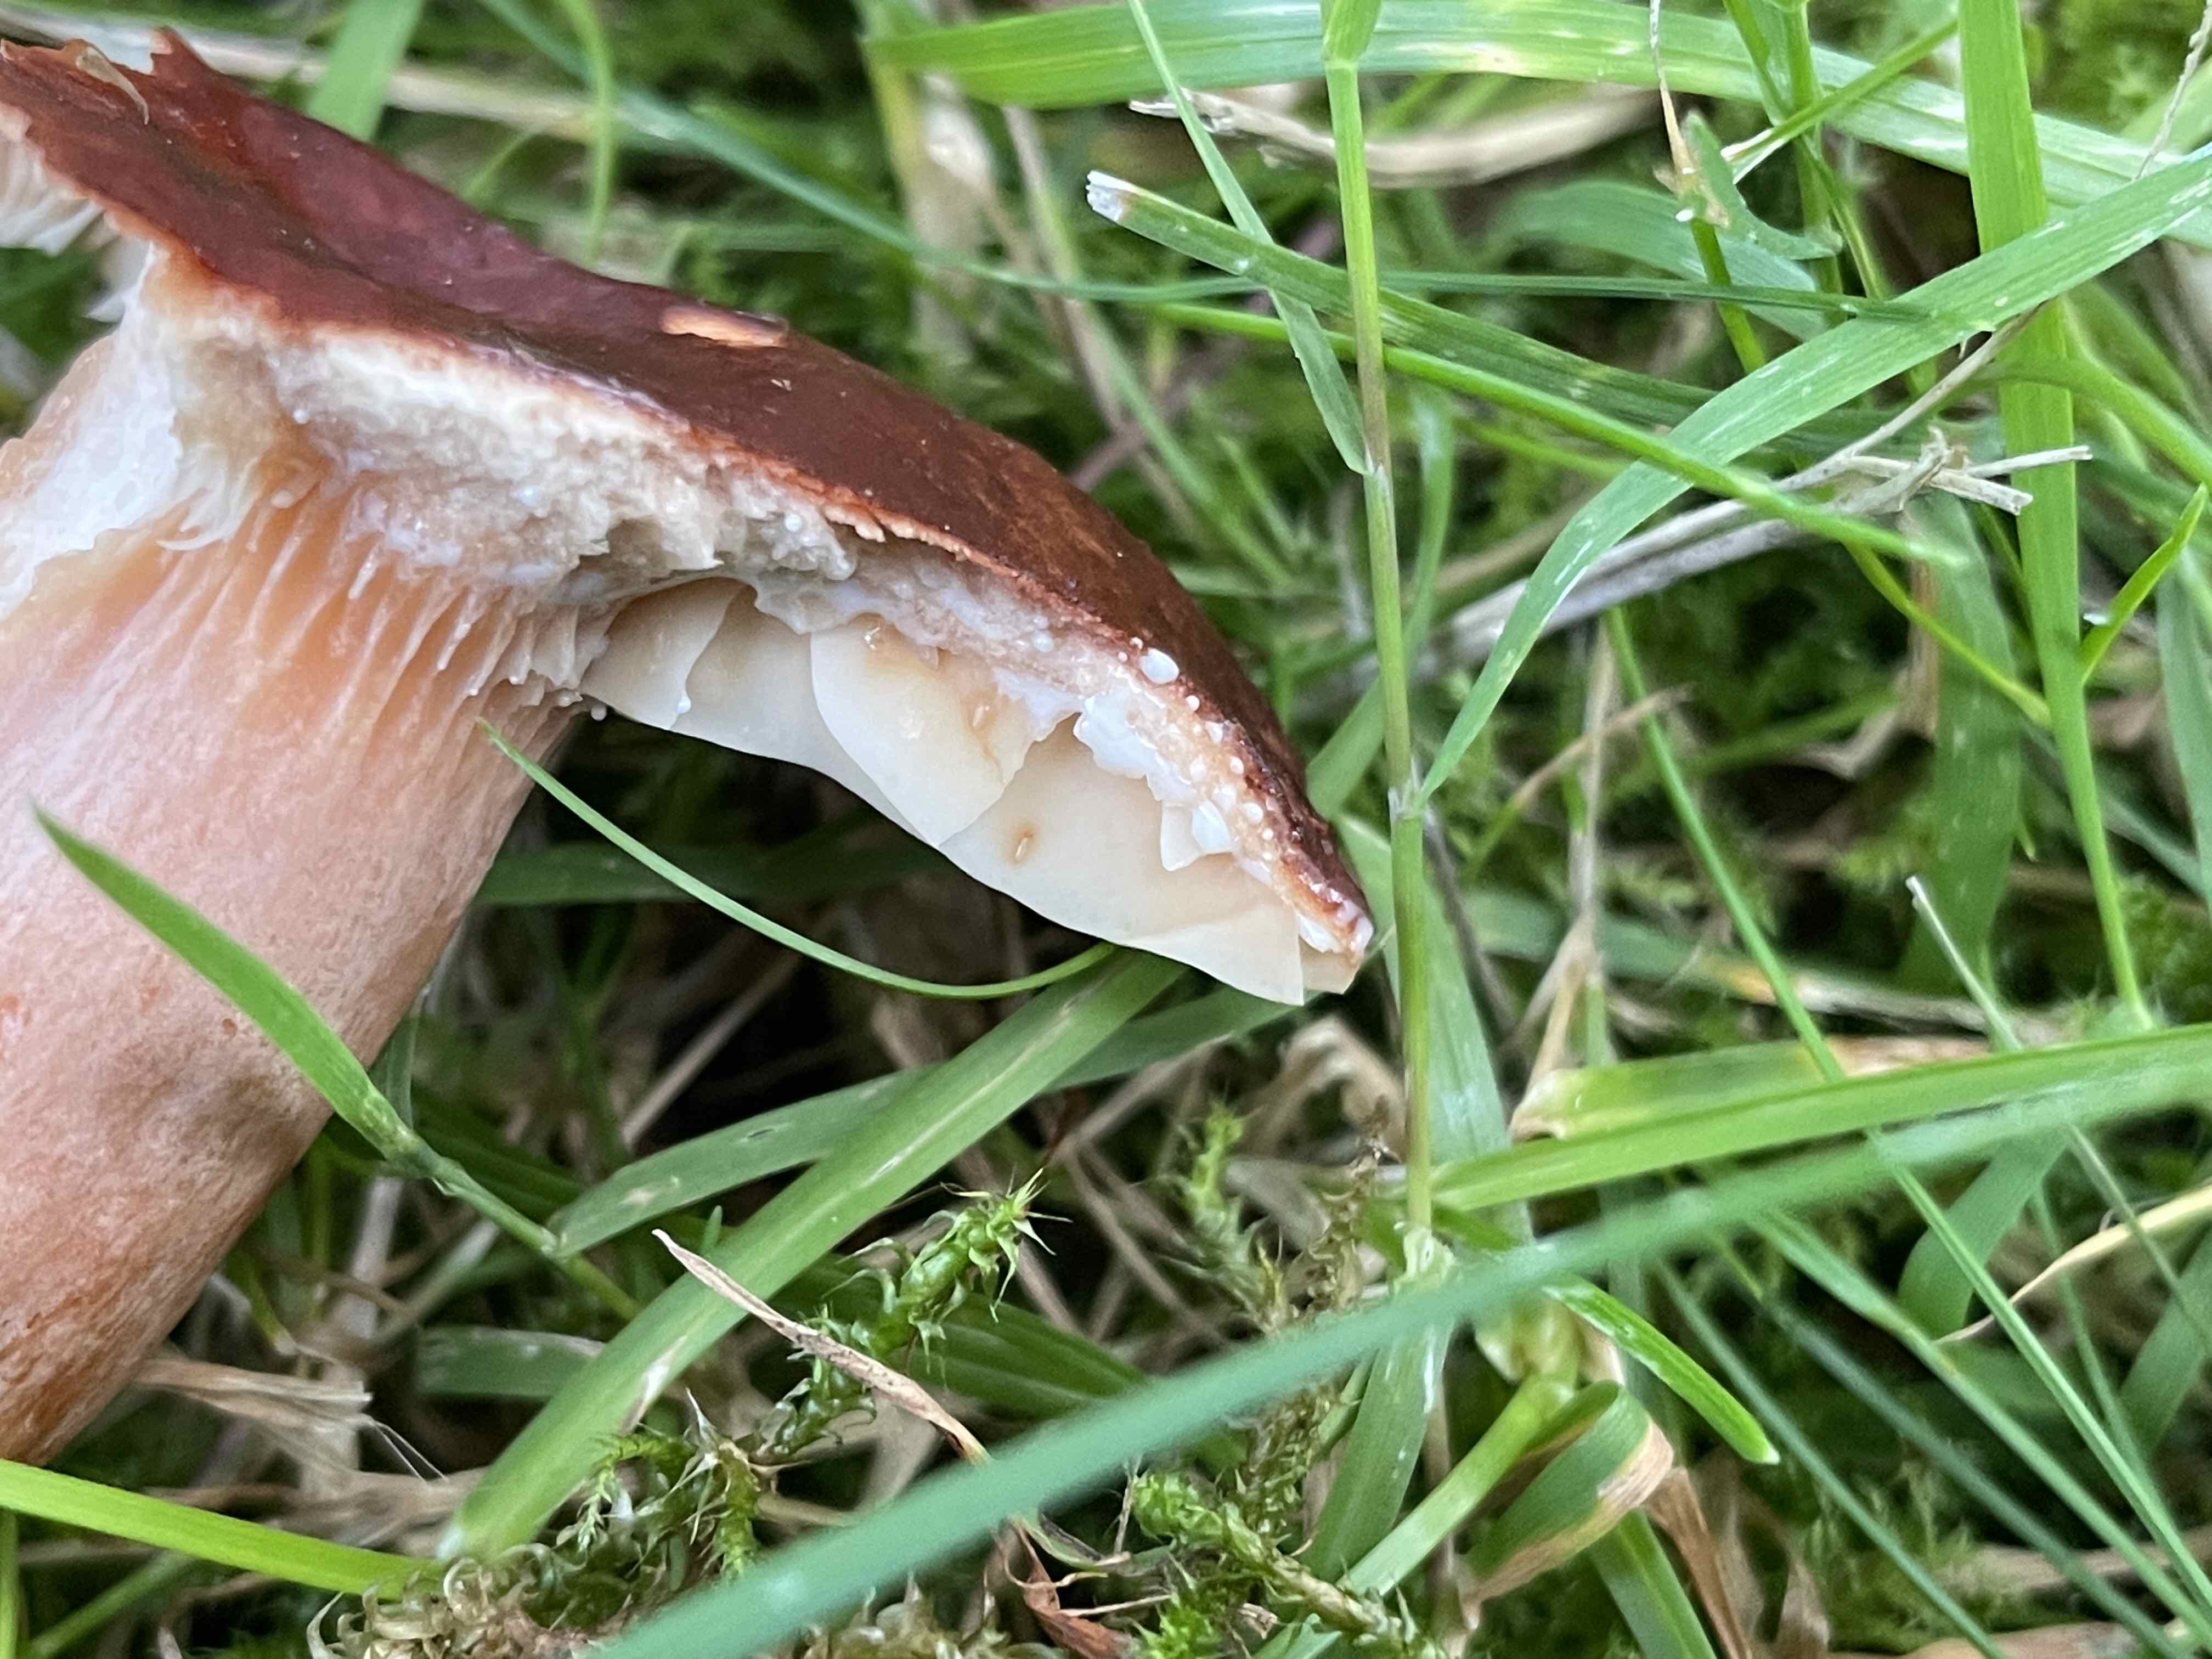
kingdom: Fungi
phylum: Basidiomycota
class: Agaricomycetes
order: Russulales
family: Russulaceae
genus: Lactarius
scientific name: Lactarius fulvissimus
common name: ræve-mælkehat
